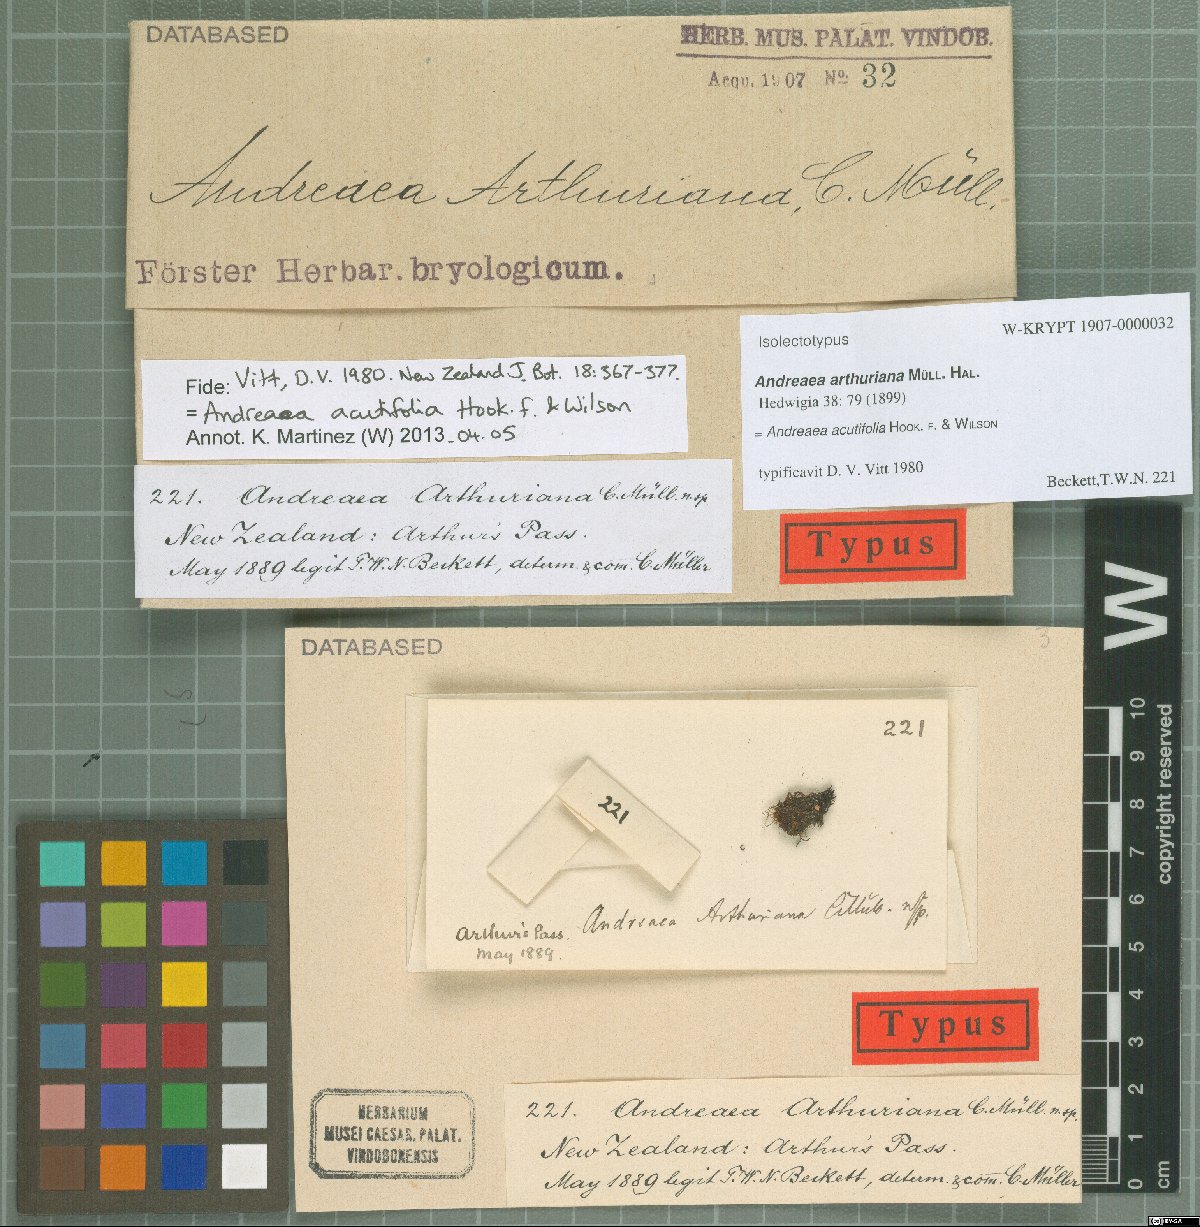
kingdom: Plantae
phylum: Bryophyta
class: Andreaeopsida
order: Andreaeales
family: Andreaeaceae
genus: Andreaea
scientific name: Andreaea acutifolia
